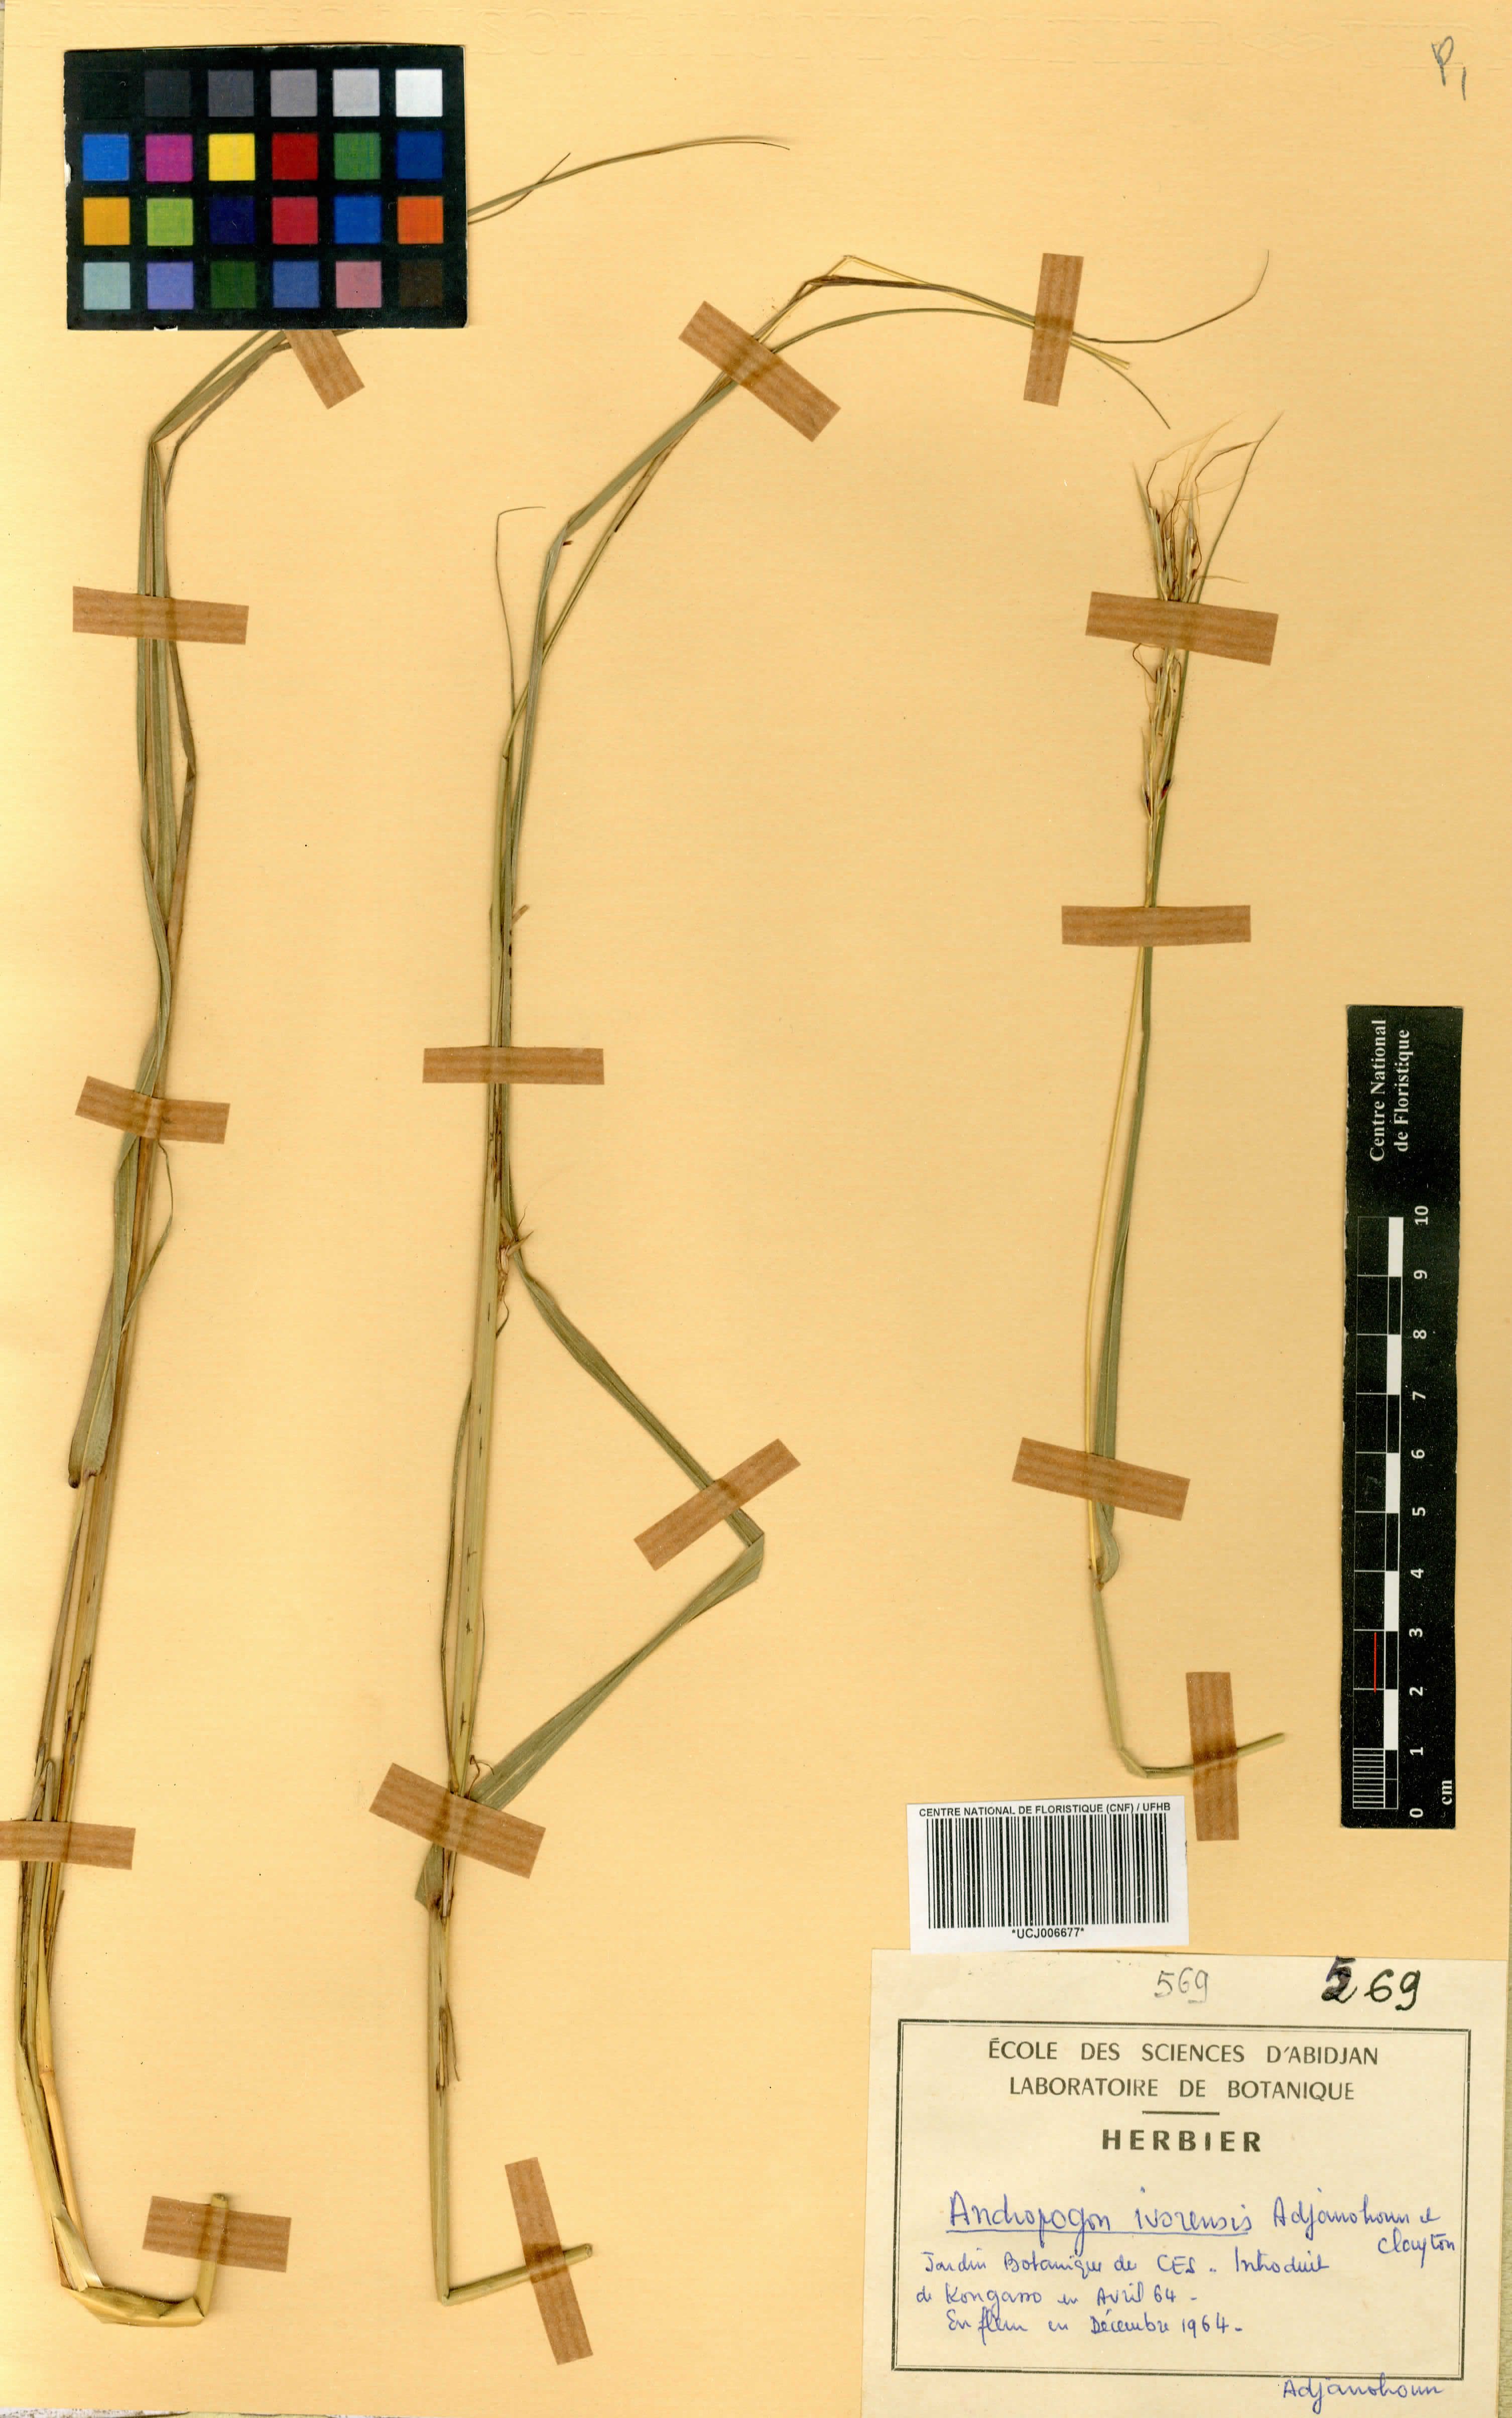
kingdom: Plantae
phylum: Tracheophyta
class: Liliopsida
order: Poales
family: Poaceae
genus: Andropogon
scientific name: Andropogon ivorensis
